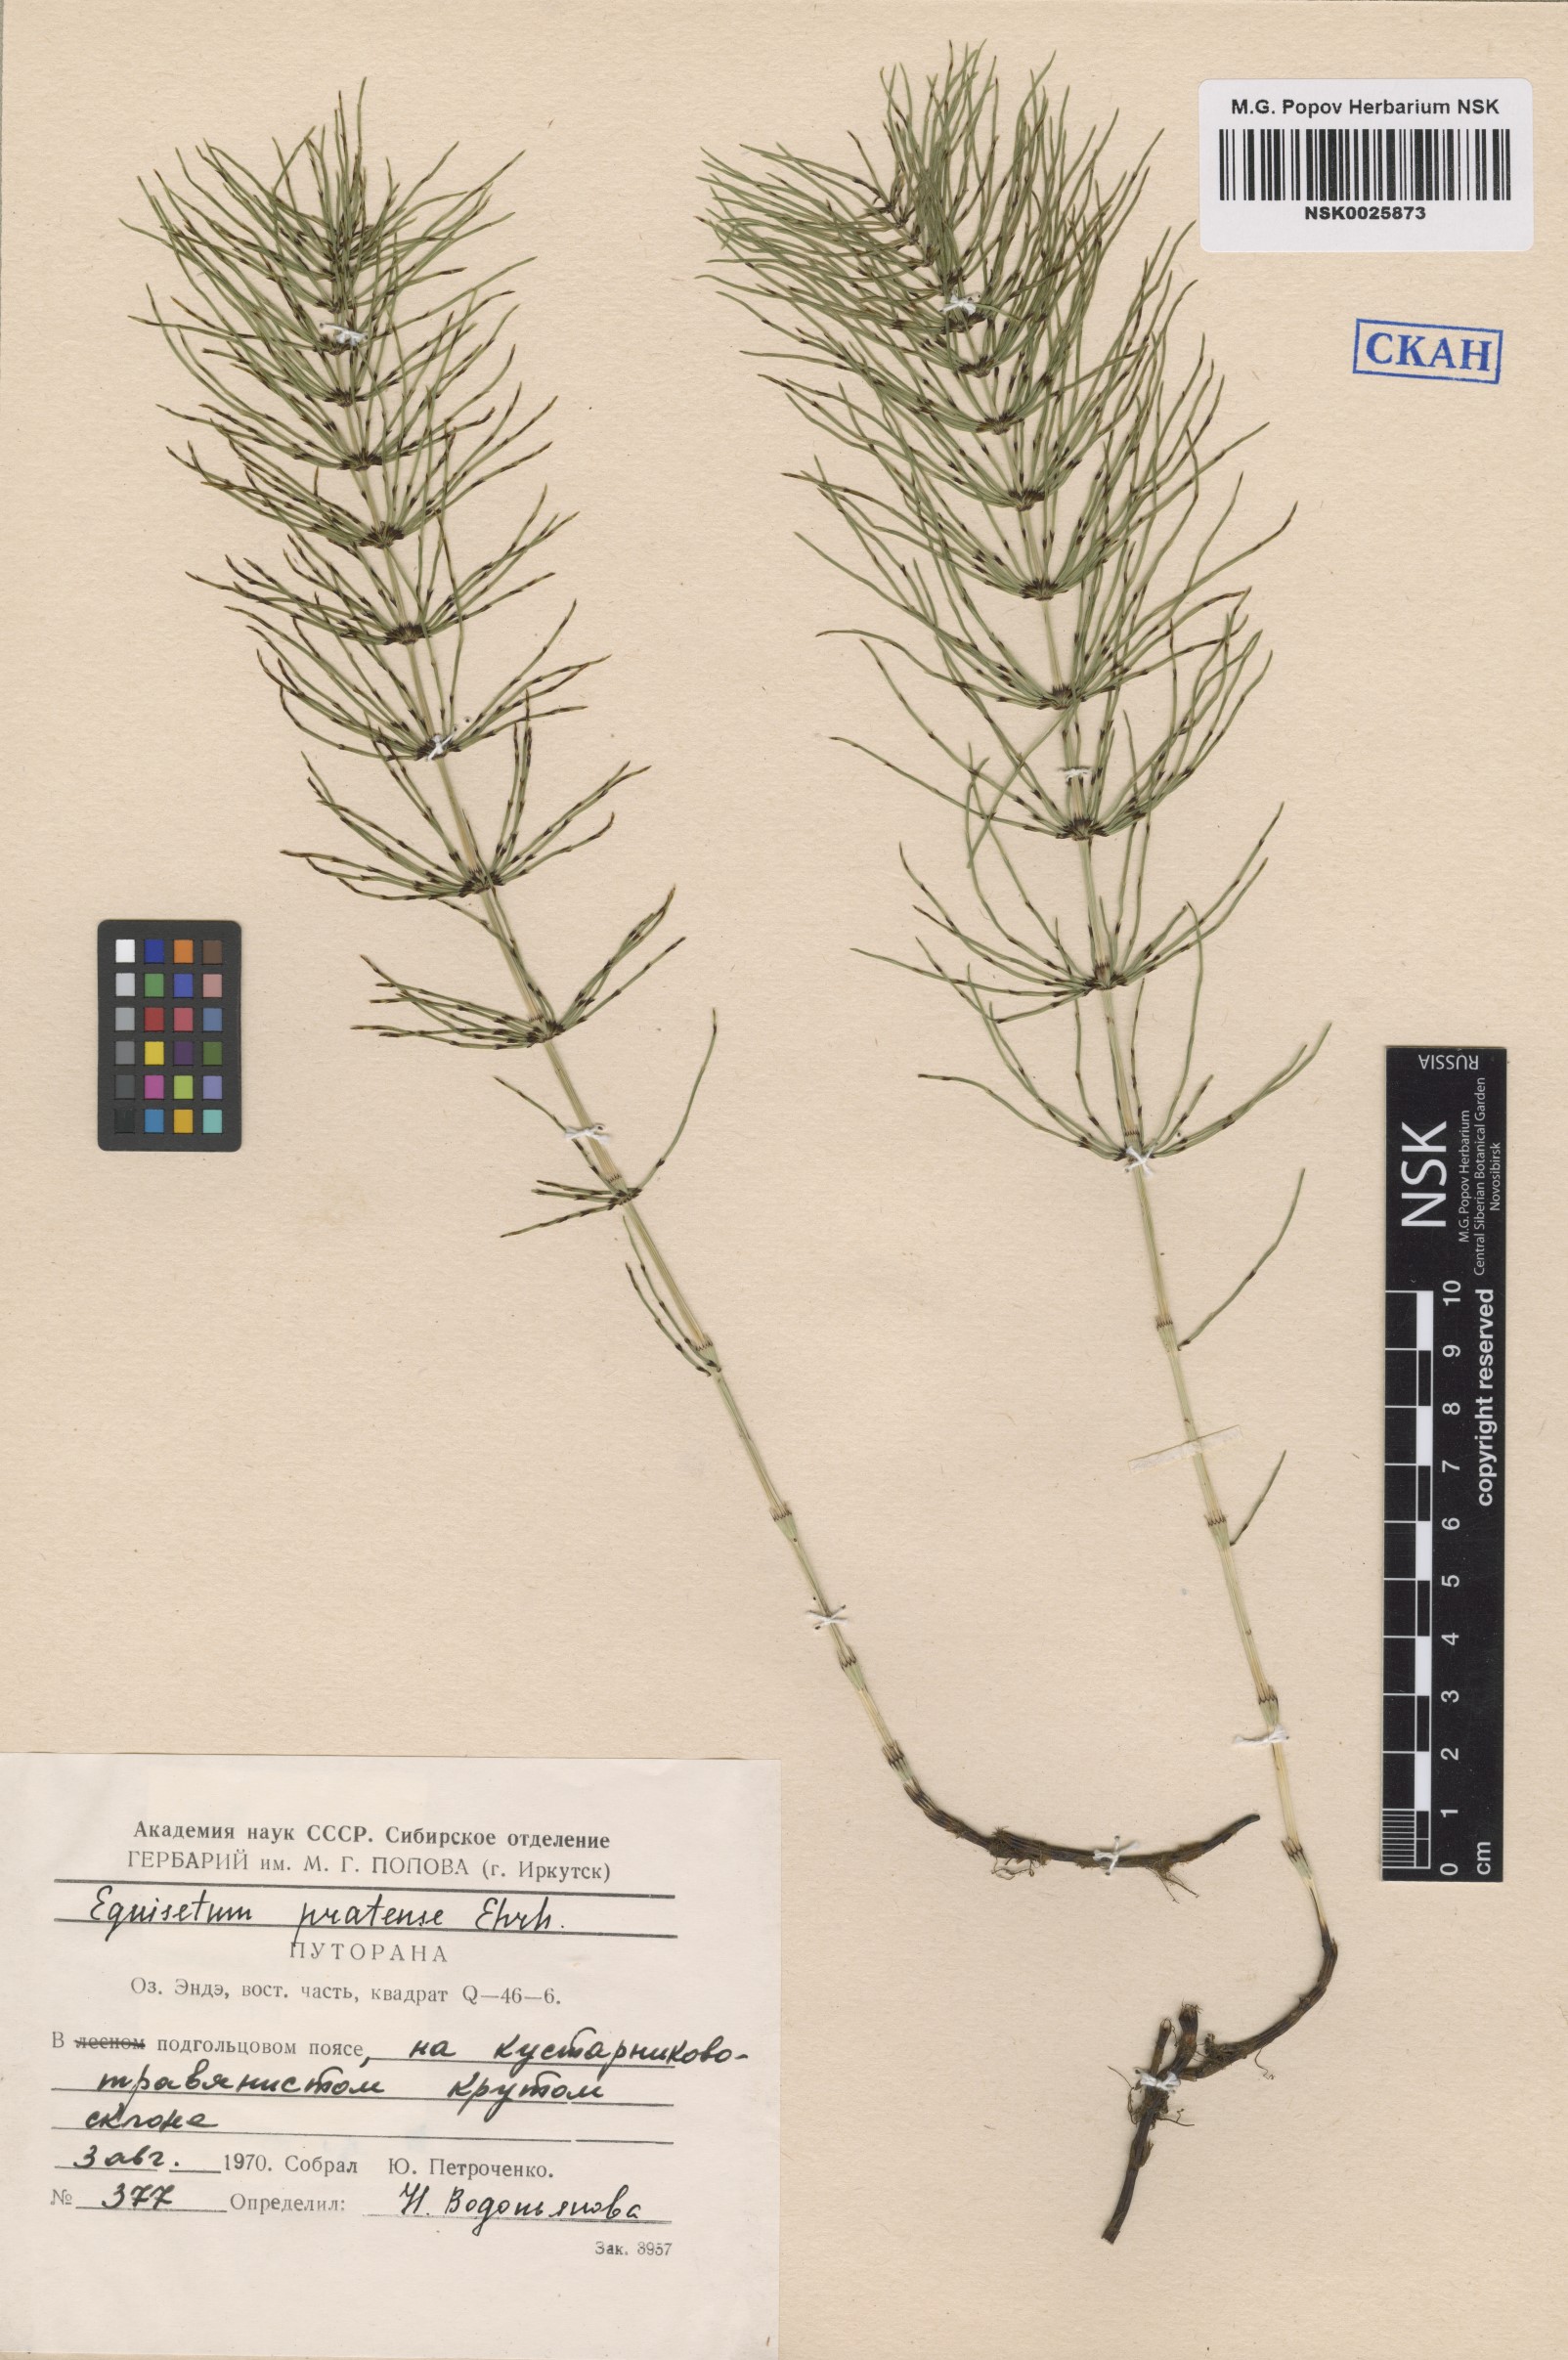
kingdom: Plantae
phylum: Tracheophyta
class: Polypodiopsida
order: Equisetales
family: Equisetaceae
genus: Equisetum
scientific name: Equisetum pratense
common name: Meadow horsetail
